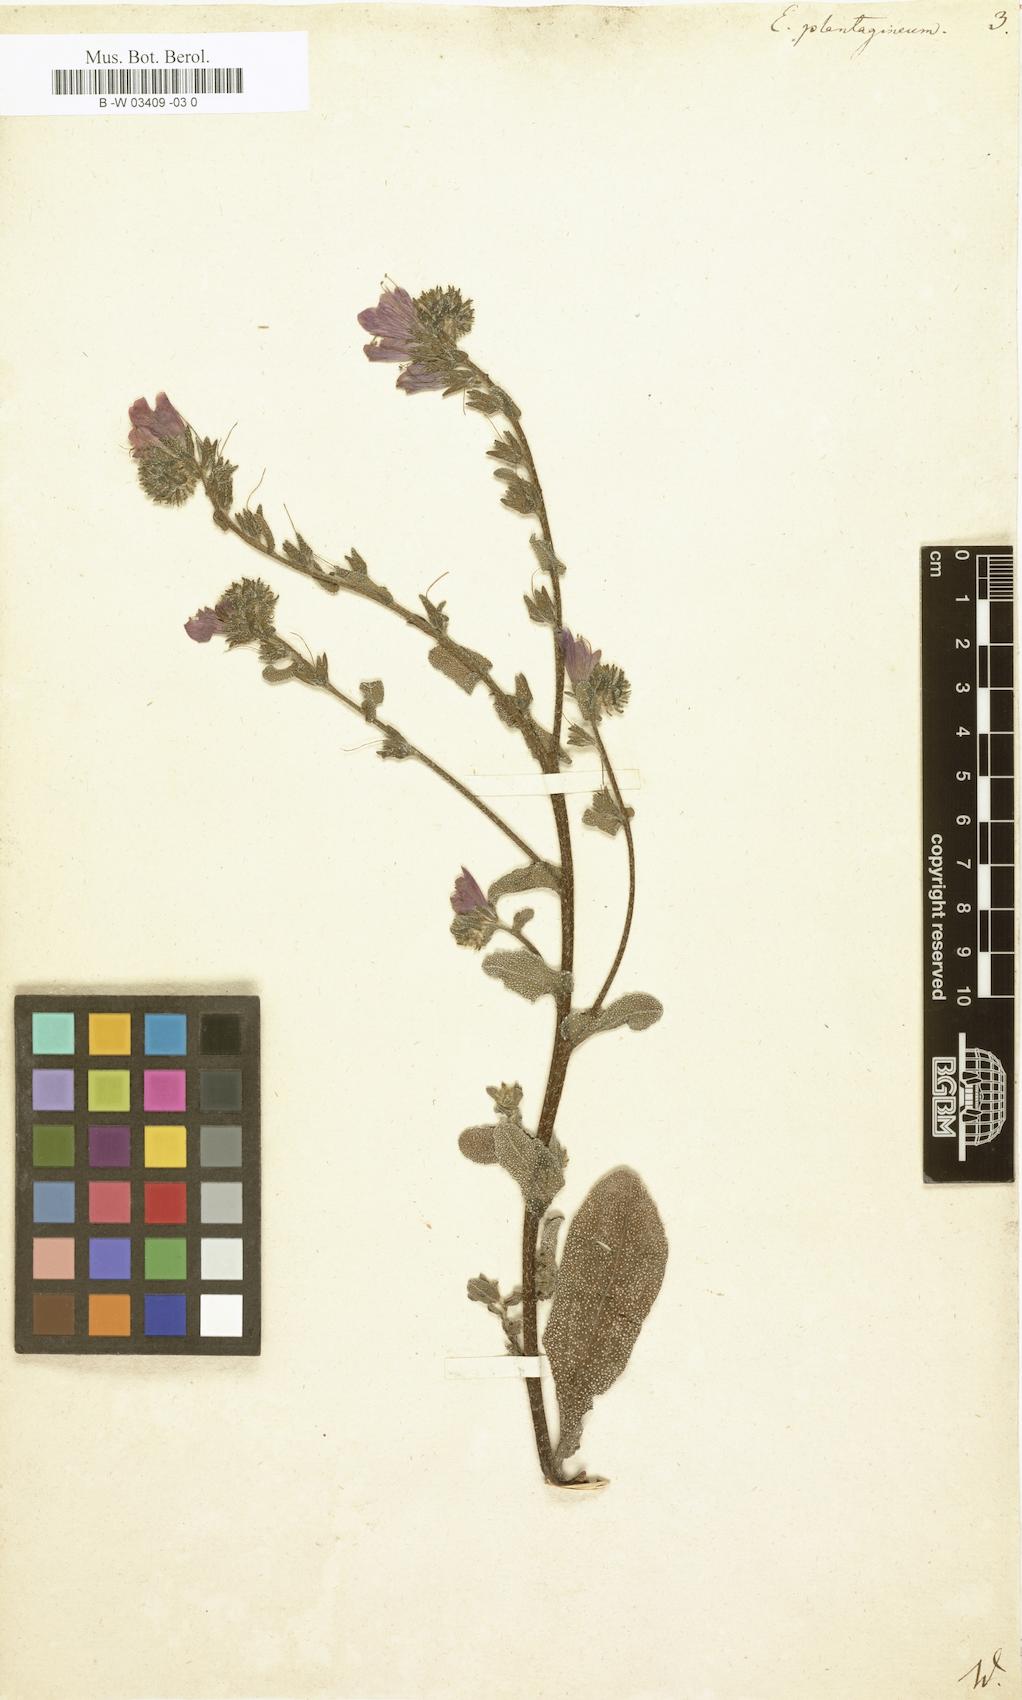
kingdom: Plantae
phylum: Tracheophyta
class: Magnoliopsida
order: Boraginales
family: Boraginaceae
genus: Echium
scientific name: Echium plantagineum
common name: Purple viper's-bugloss
